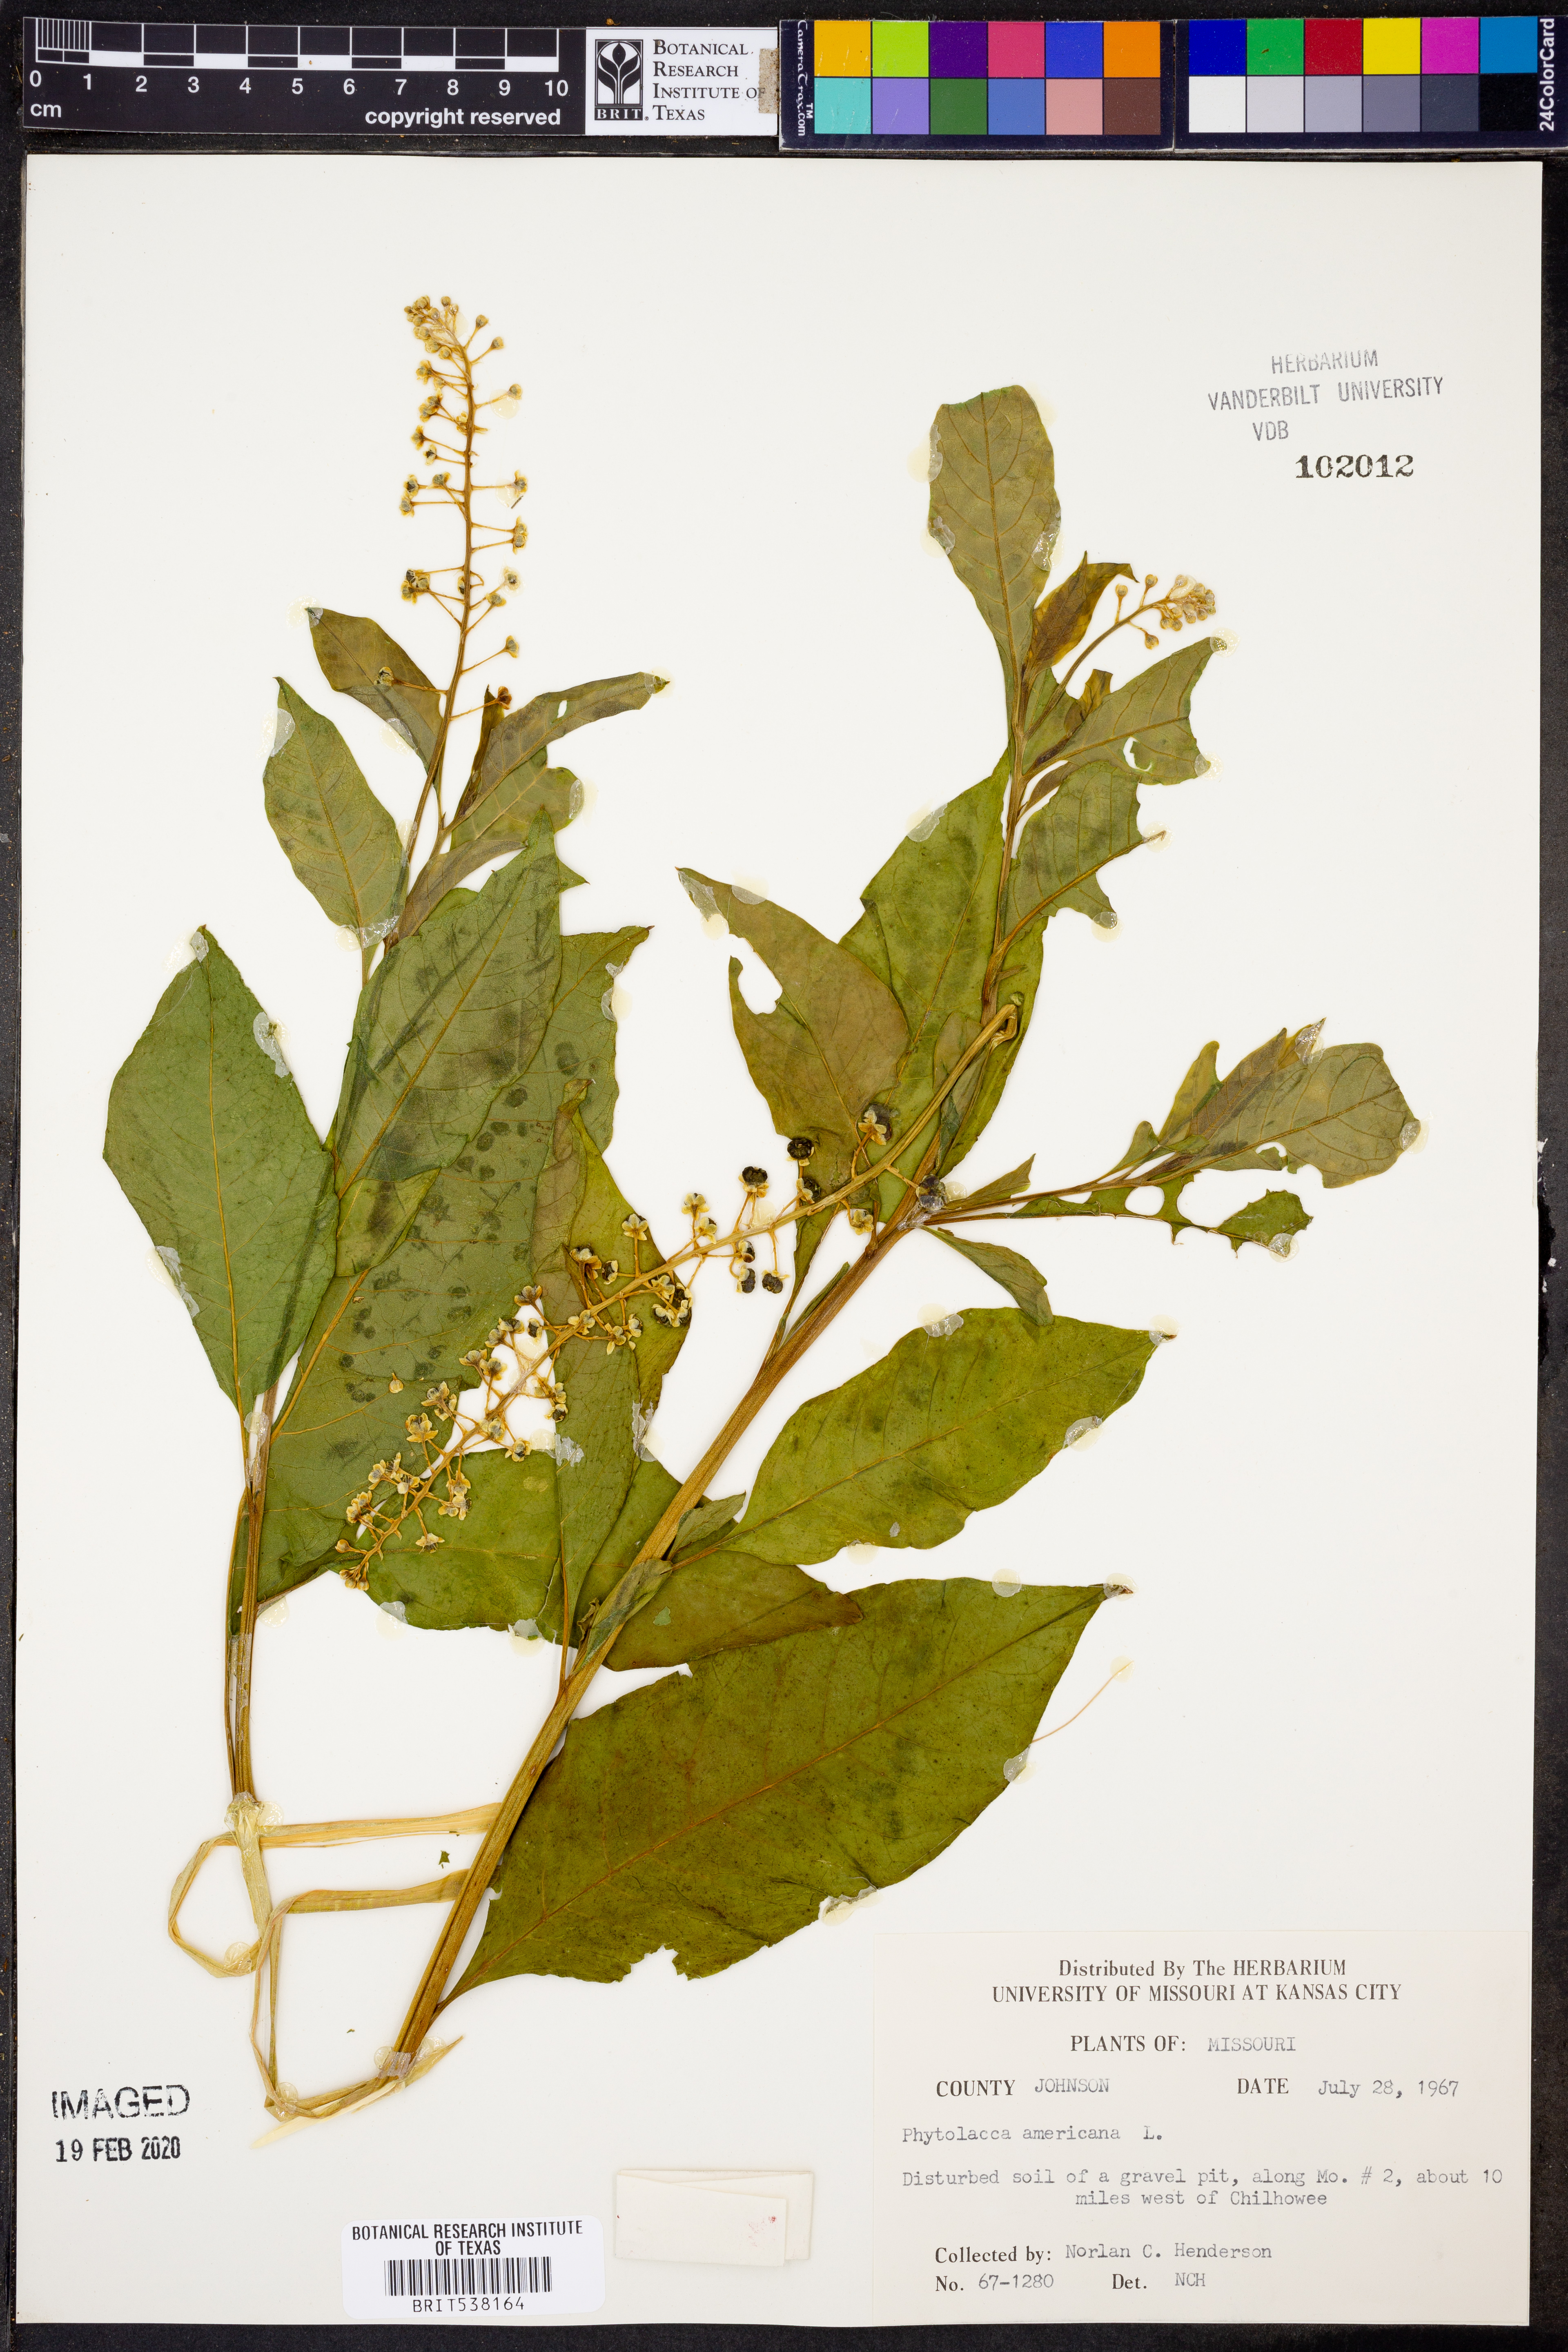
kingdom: Plantae
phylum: Tracheophyta
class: Magnoliopsida
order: Caryophyllales
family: Phytolaccaceae
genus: Phytolacca
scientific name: Phytolacca americana
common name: American pokeweed
